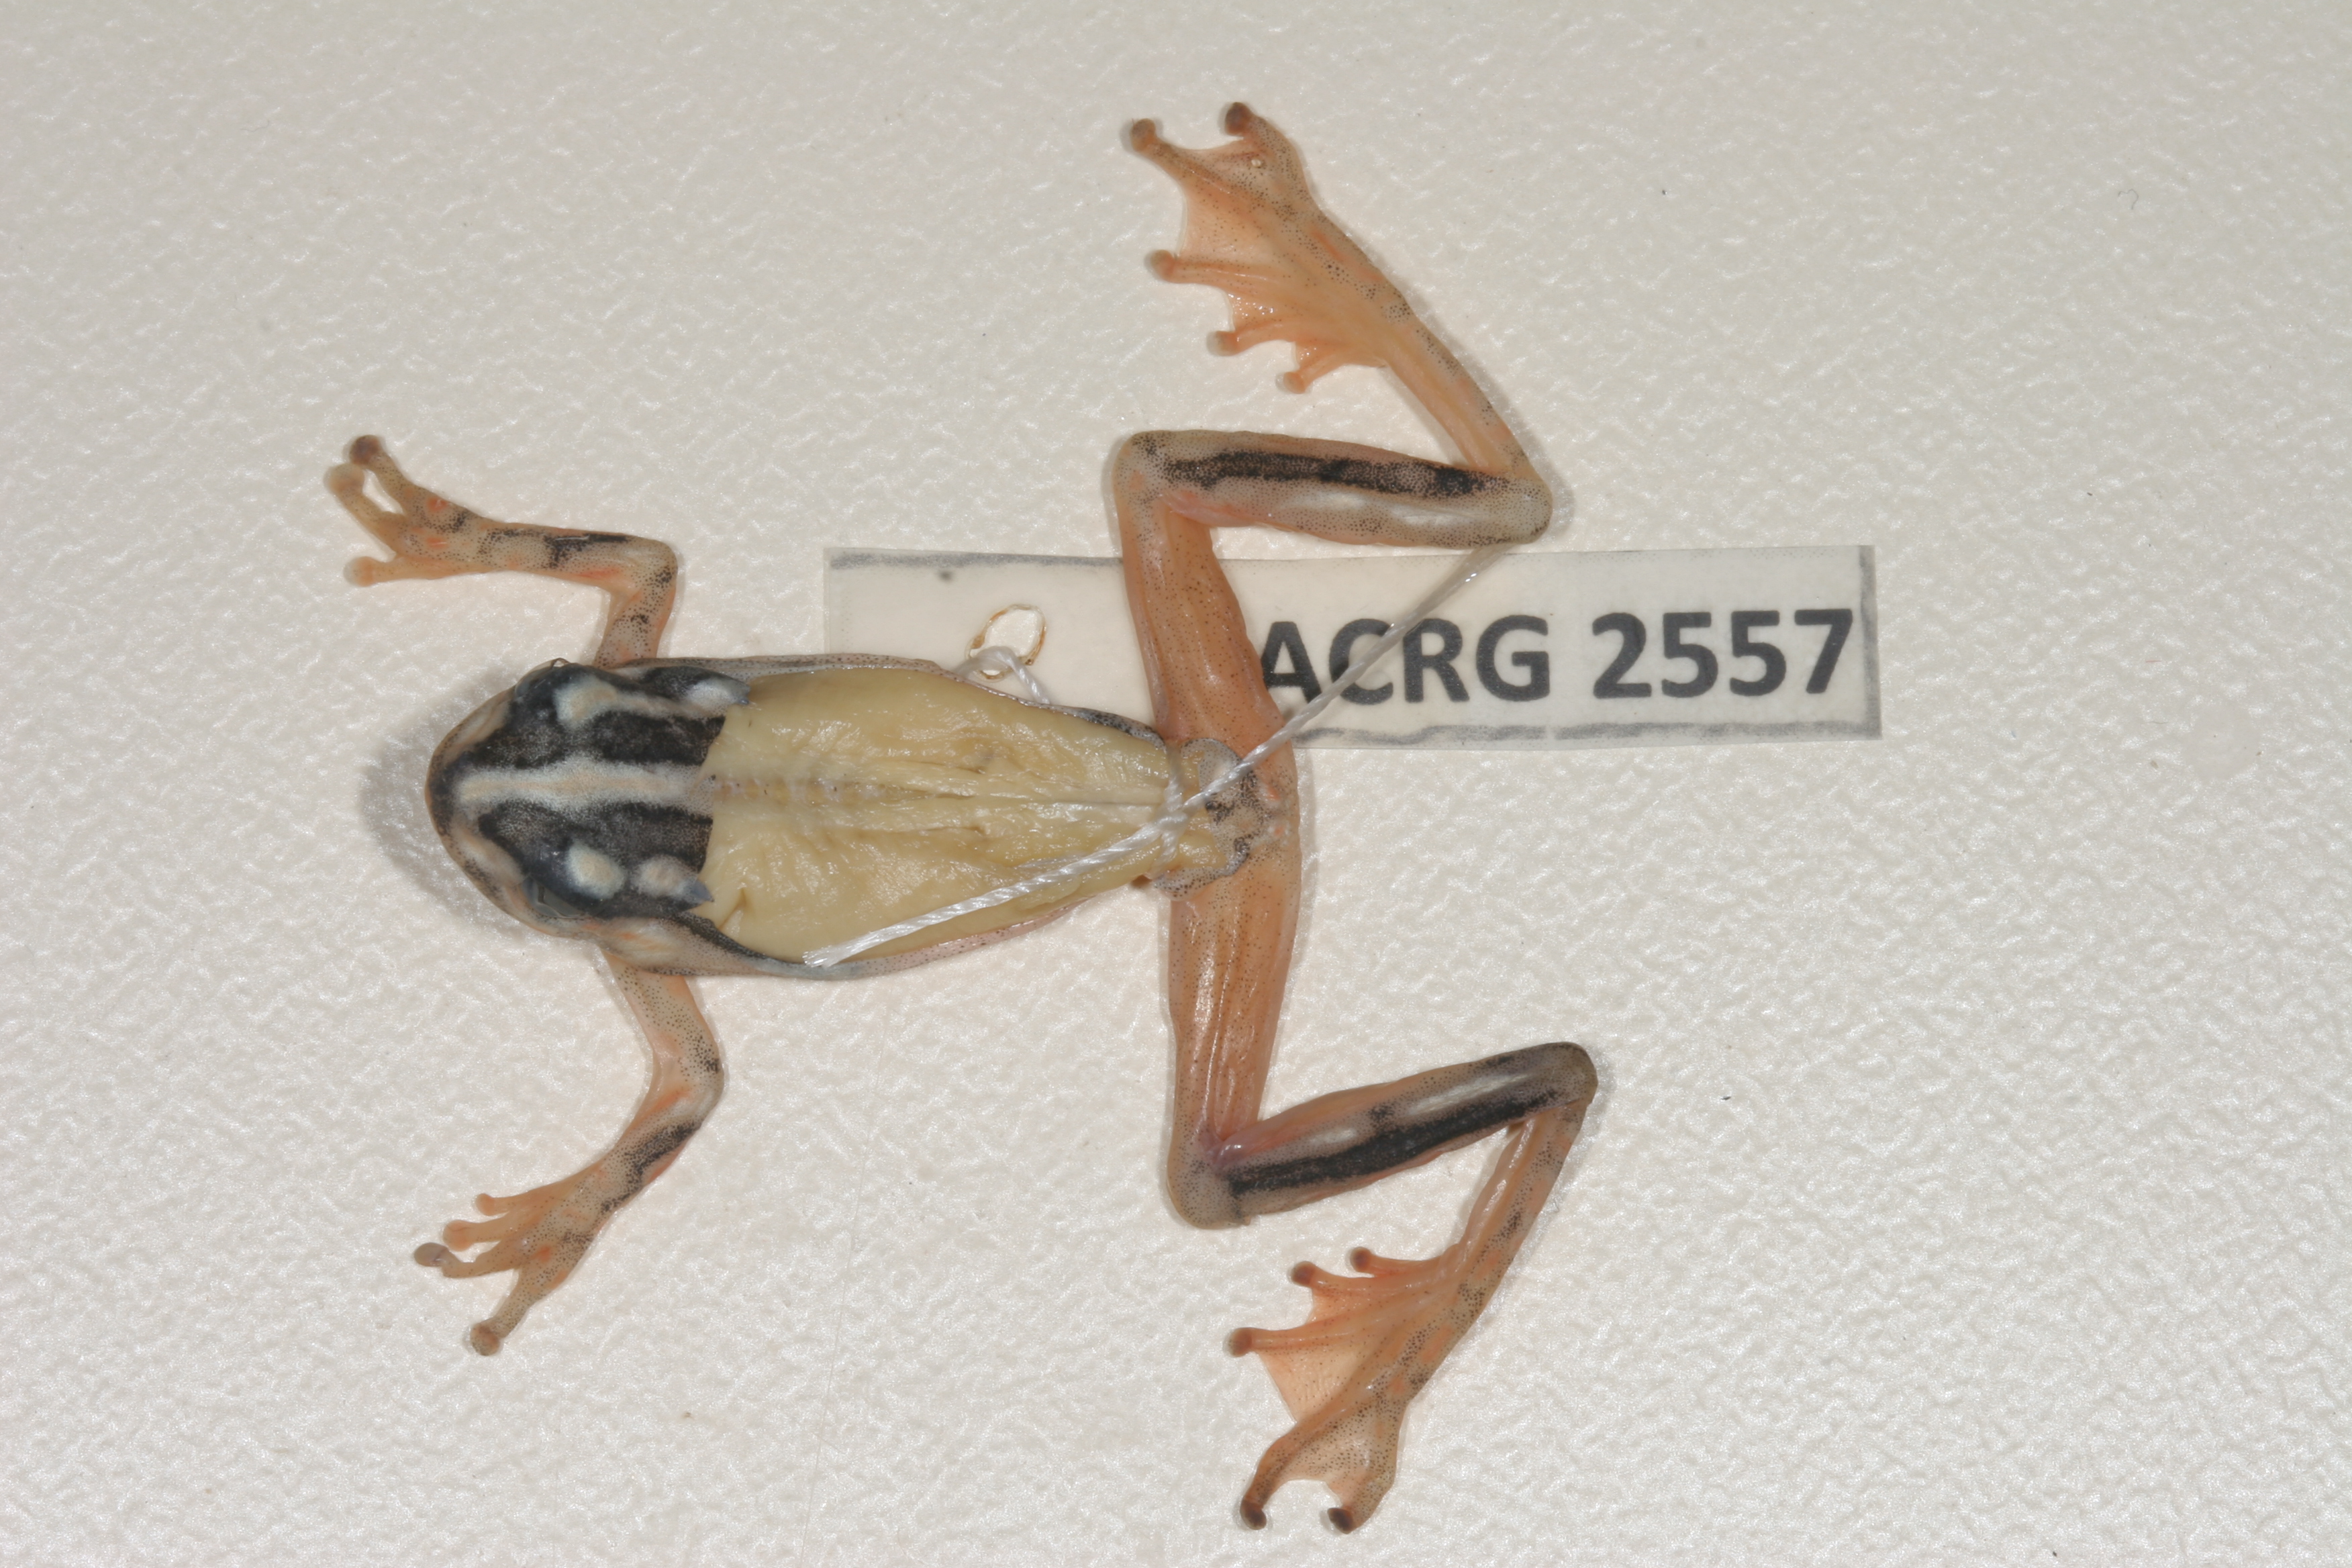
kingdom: Animalia
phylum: Chordata
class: Amphibia
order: Anura
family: Hyperoliidae
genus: Hyperolius
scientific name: Hyperolius marmoratus
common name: Painted reed frog
